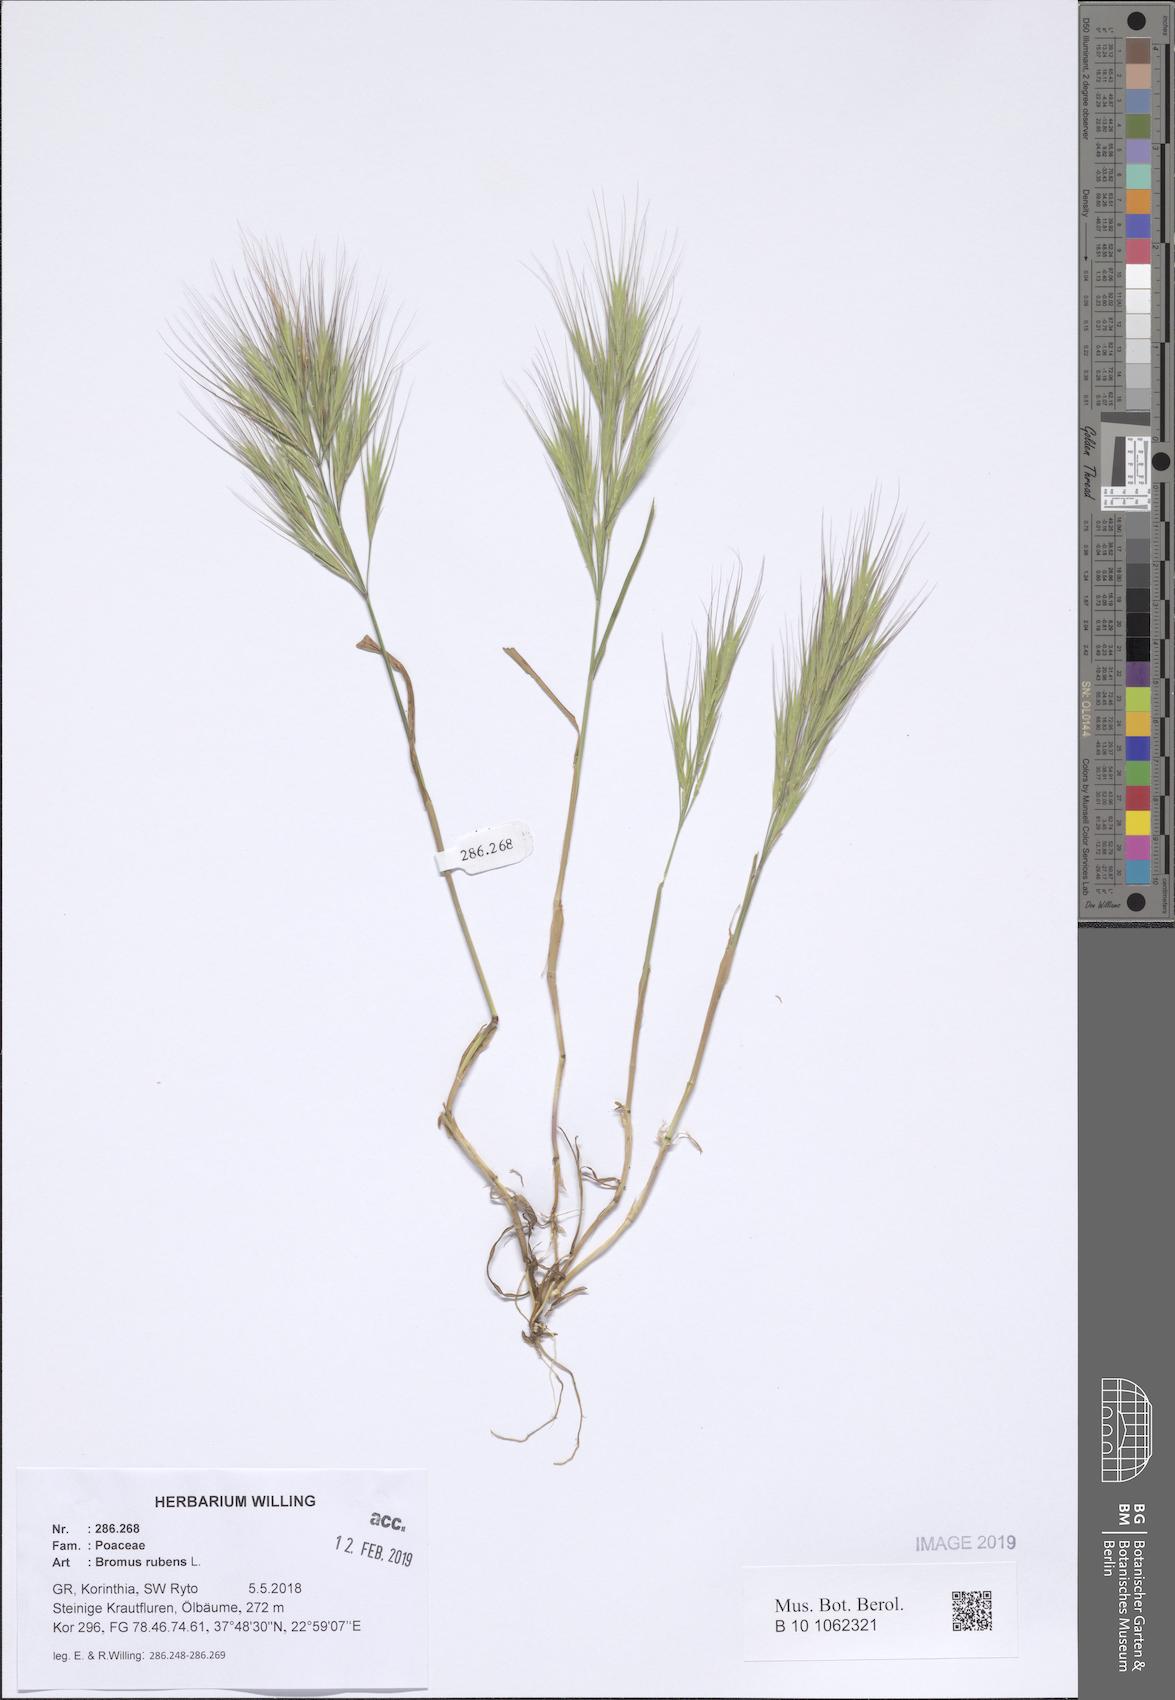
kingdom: Plantae
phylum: Tracheophyta
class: Liliopsida
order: Poales
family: Poaceae
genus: Bromus
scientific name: Bromus rubens
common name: Red brome
